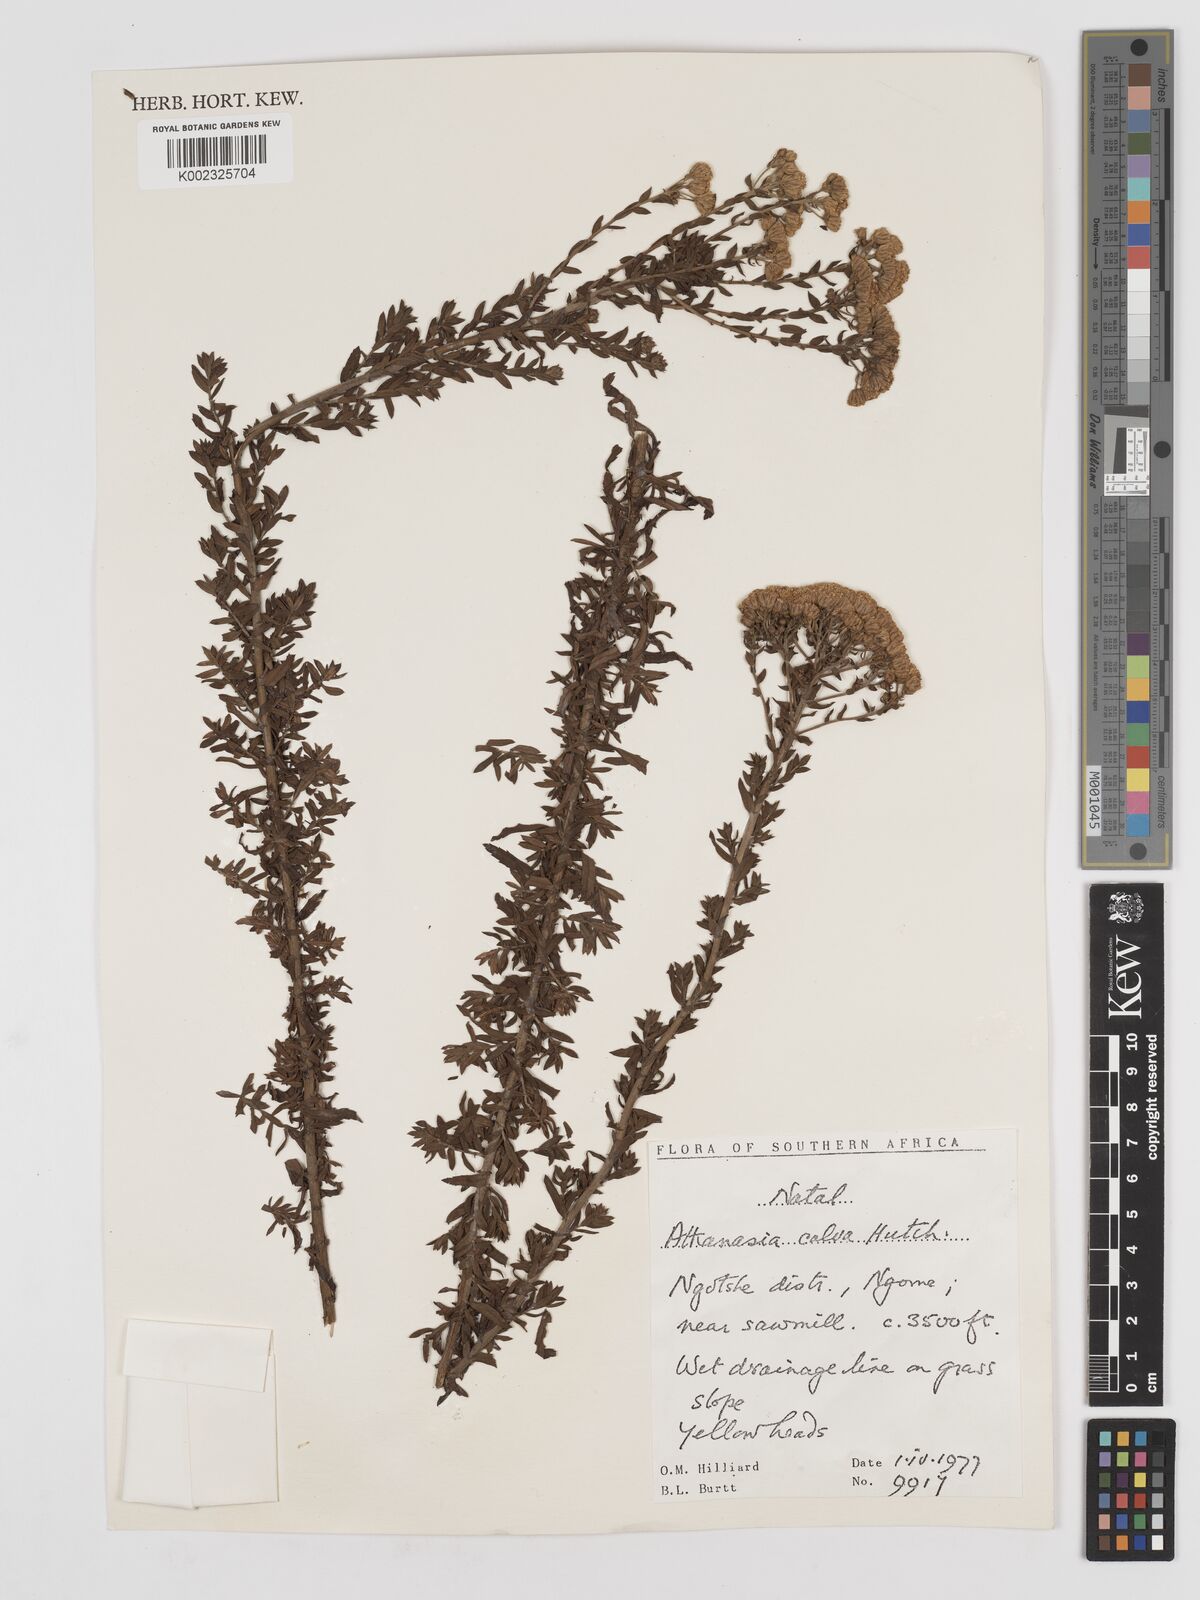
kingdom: Plantae
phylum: Tracheophyta
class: Magnoliopsida
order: Asterales
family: Asteraceae
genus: Inulanthera
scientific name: Inulanthera dregeana
